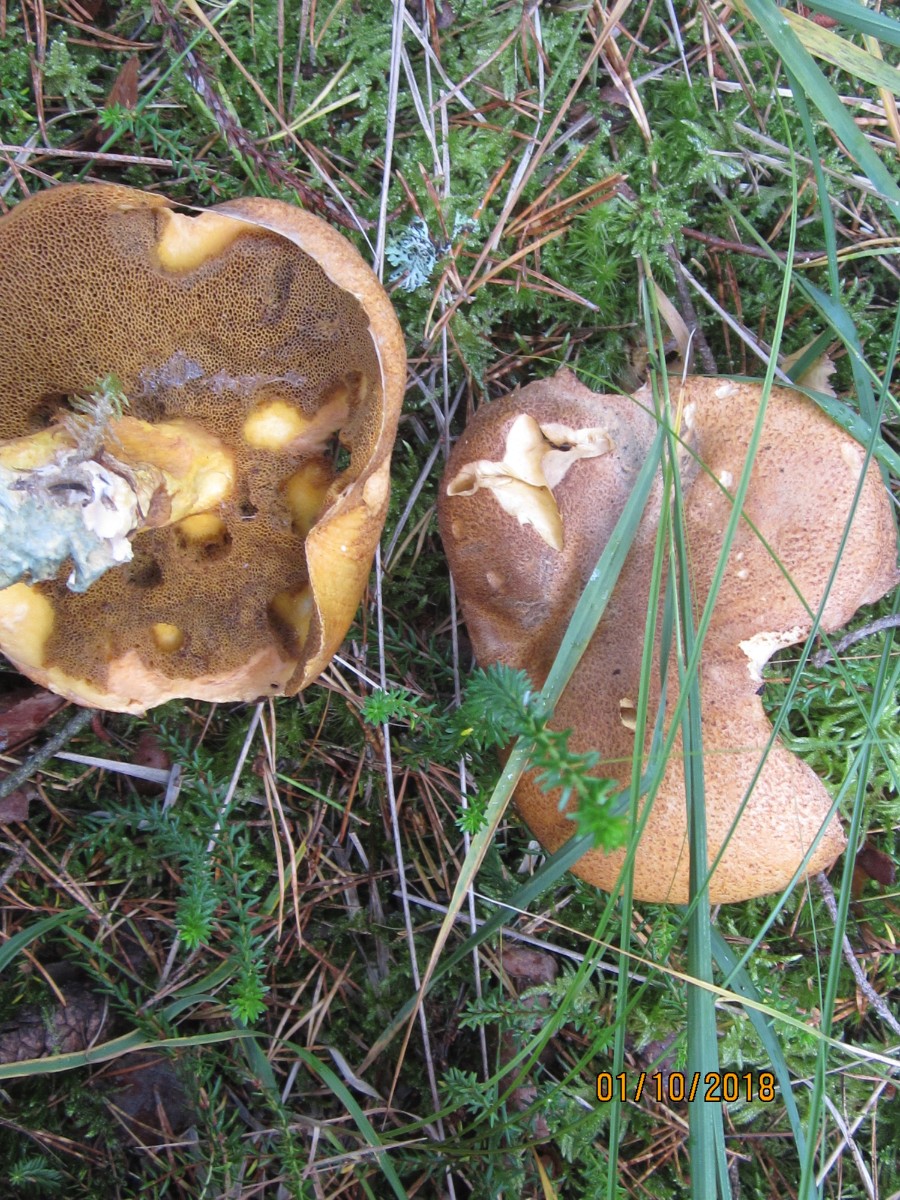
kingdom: Fungi
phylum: Basidiomycota
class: Agaricomycetes
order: Boletales
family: Suillaceae
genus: Suillus
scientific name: Suillus variegatus
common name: broget slimrørhat
